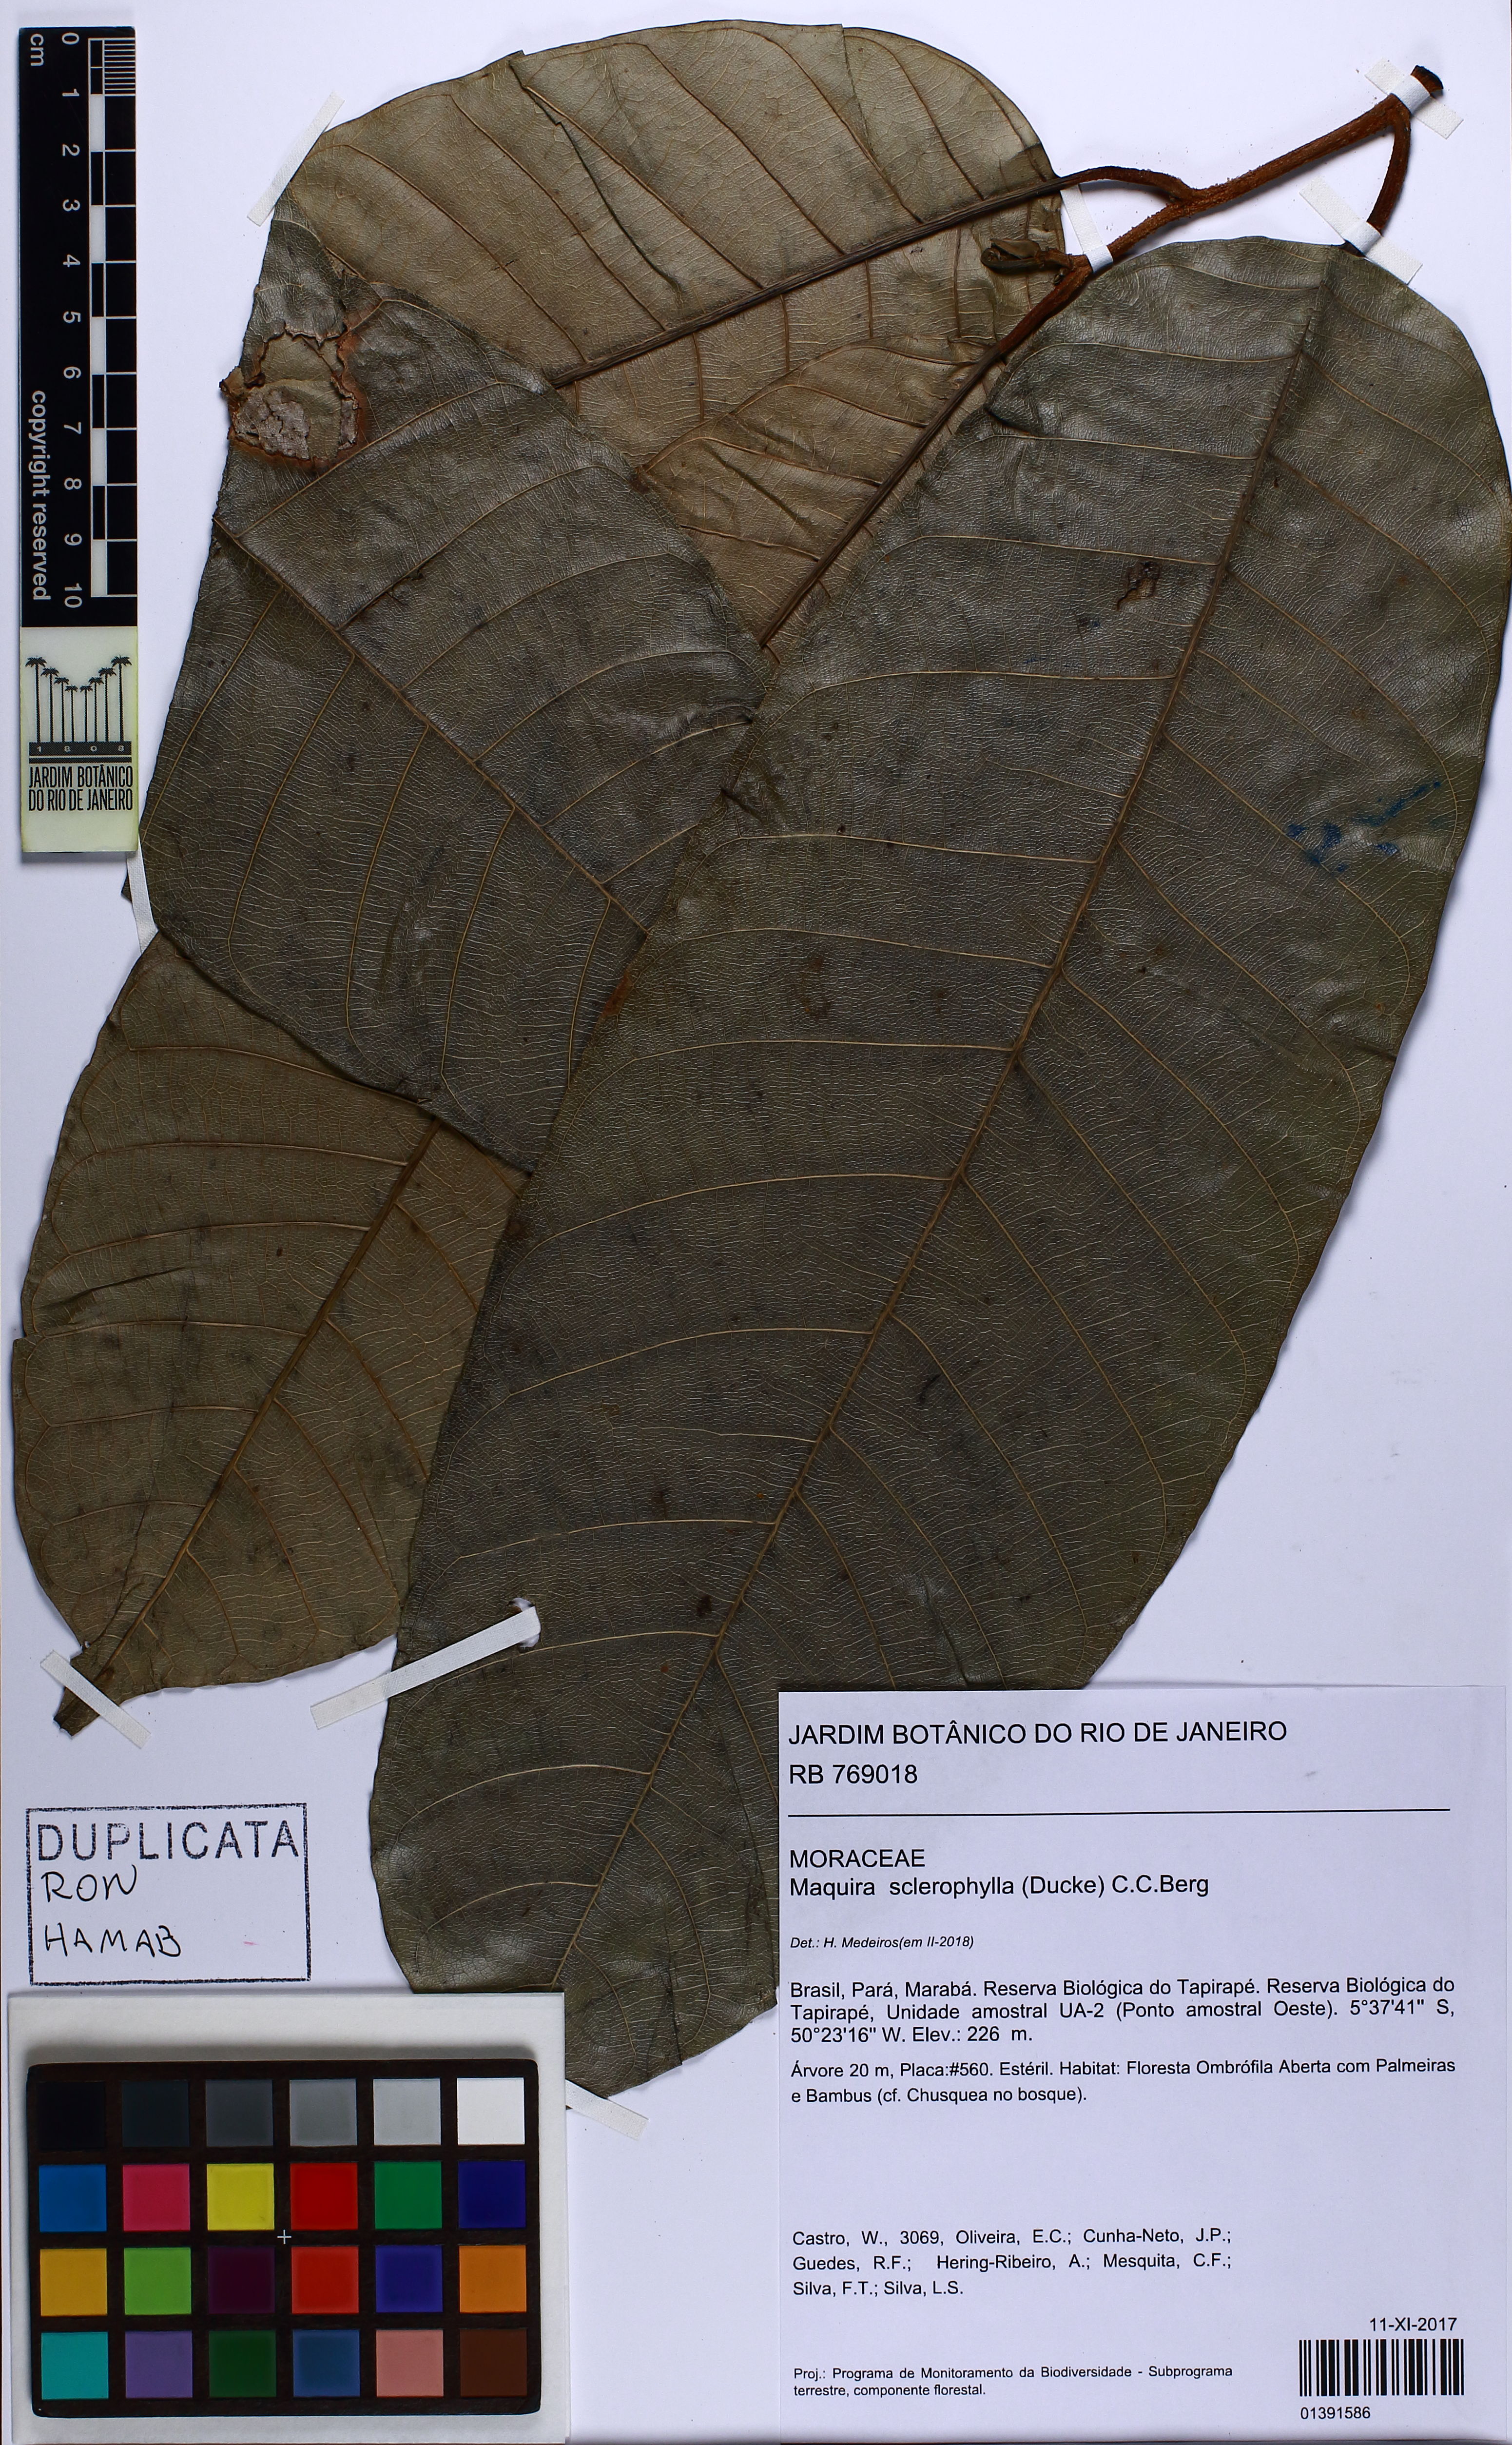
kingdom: Plantae
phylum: Tracheophyta
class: Magnoliopsida
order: Rosales
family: Moraceae
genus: Maquira
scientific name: Maquira sclerophylla
